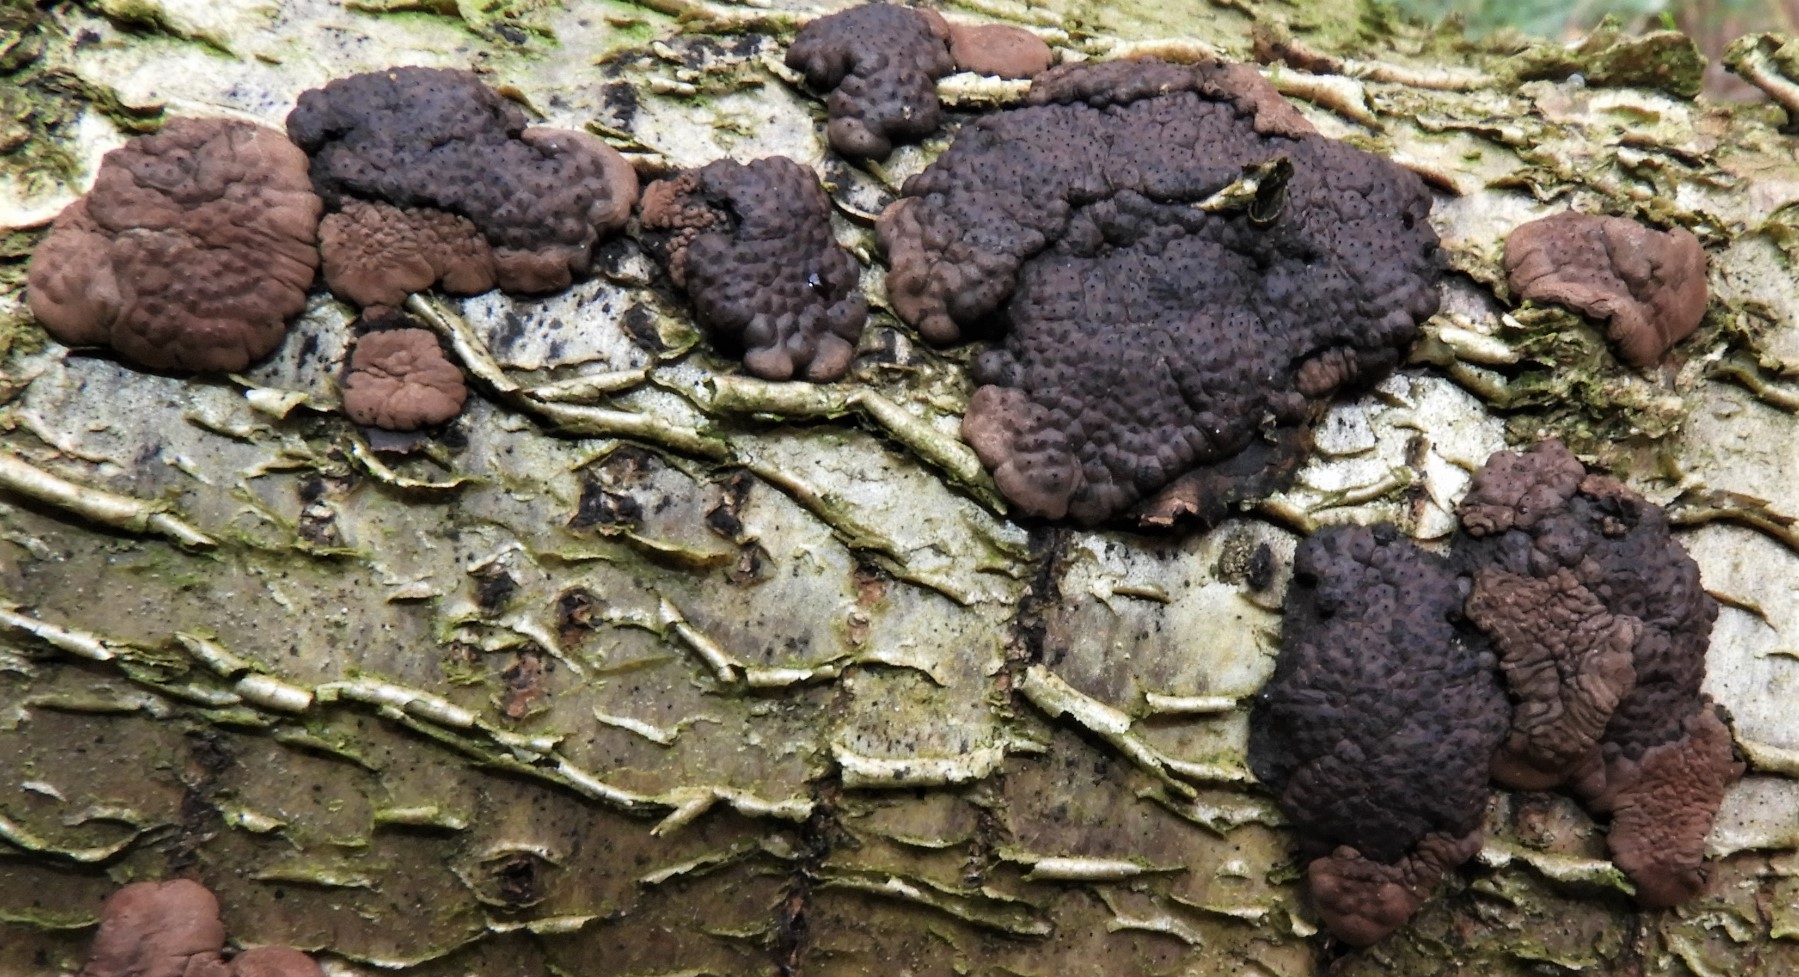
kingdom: Fungi
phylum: Ascomycota
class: Sordariomycetes
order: Xylariales
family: Hypoxylaceae
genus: Jackrogersella
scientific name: Jackrogersella multiformis
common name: foranderlig kulbær
